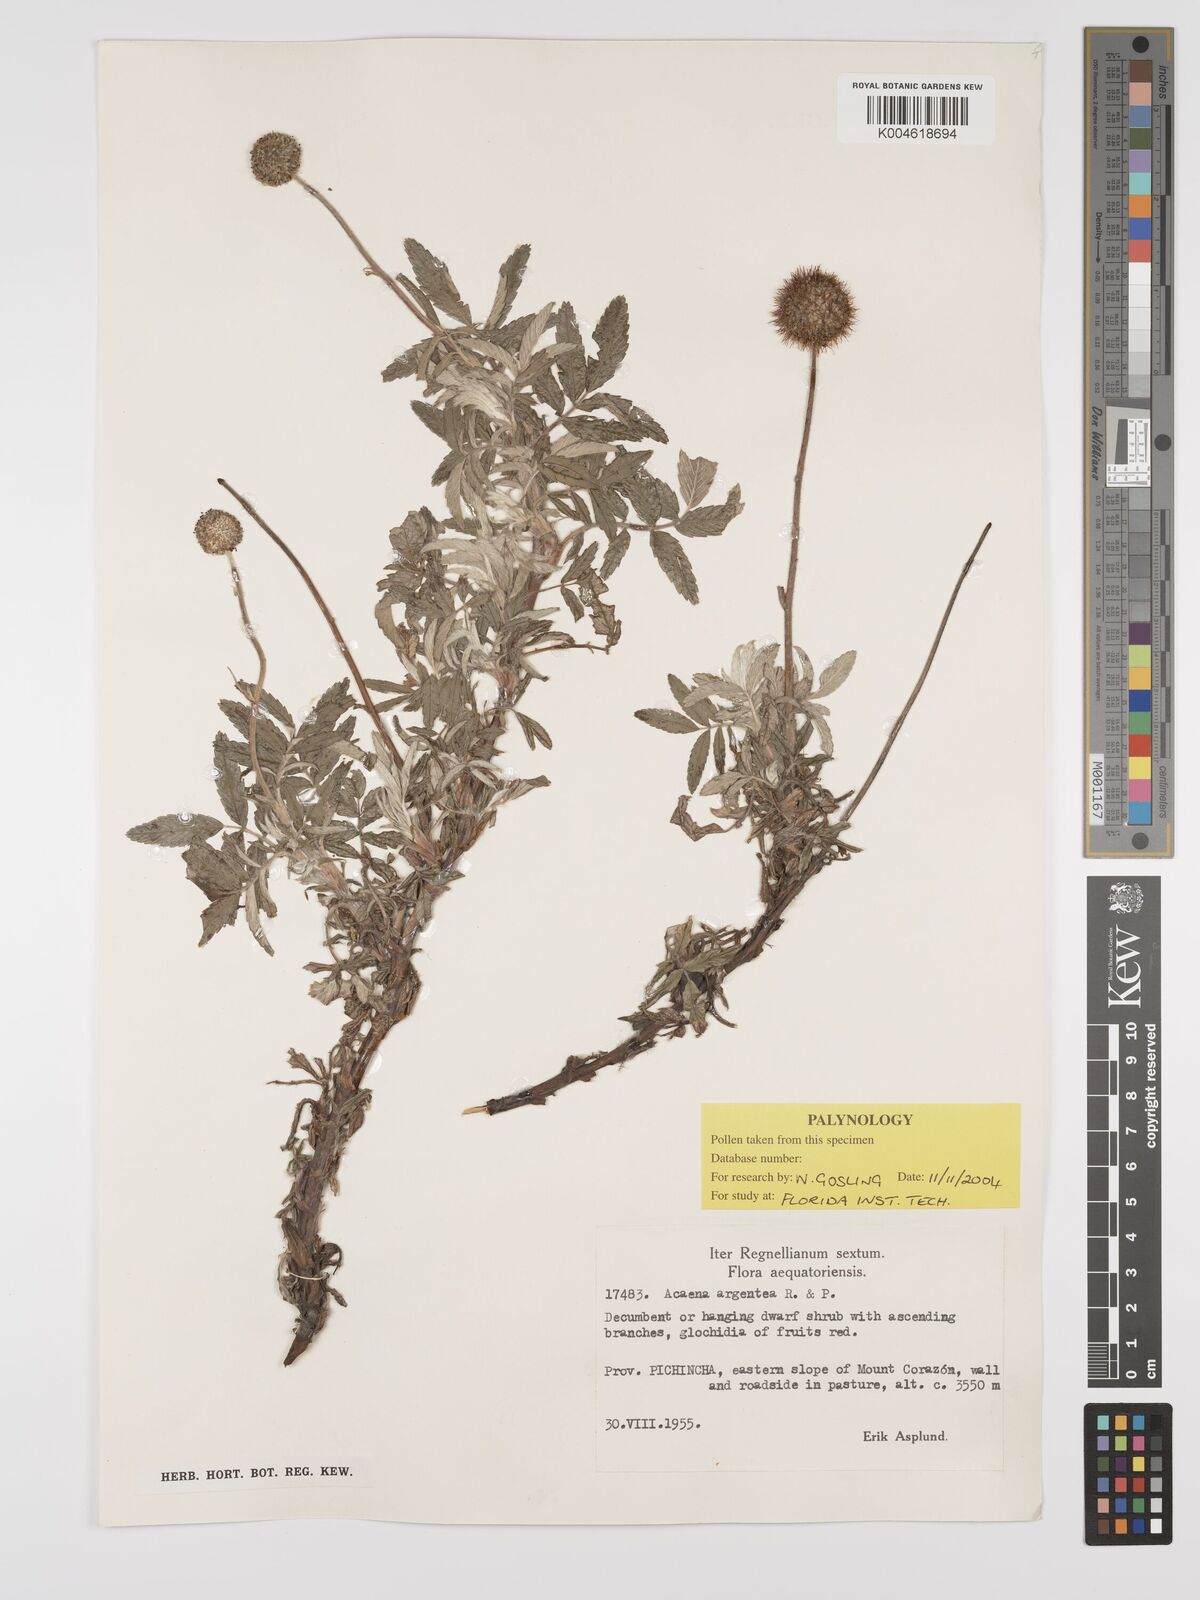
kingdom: Plantae
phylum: Tracheophyta
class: Magnoliopsida
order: Rosales
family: Rosaceae
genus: Acaena
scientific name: Acaena subincisa
